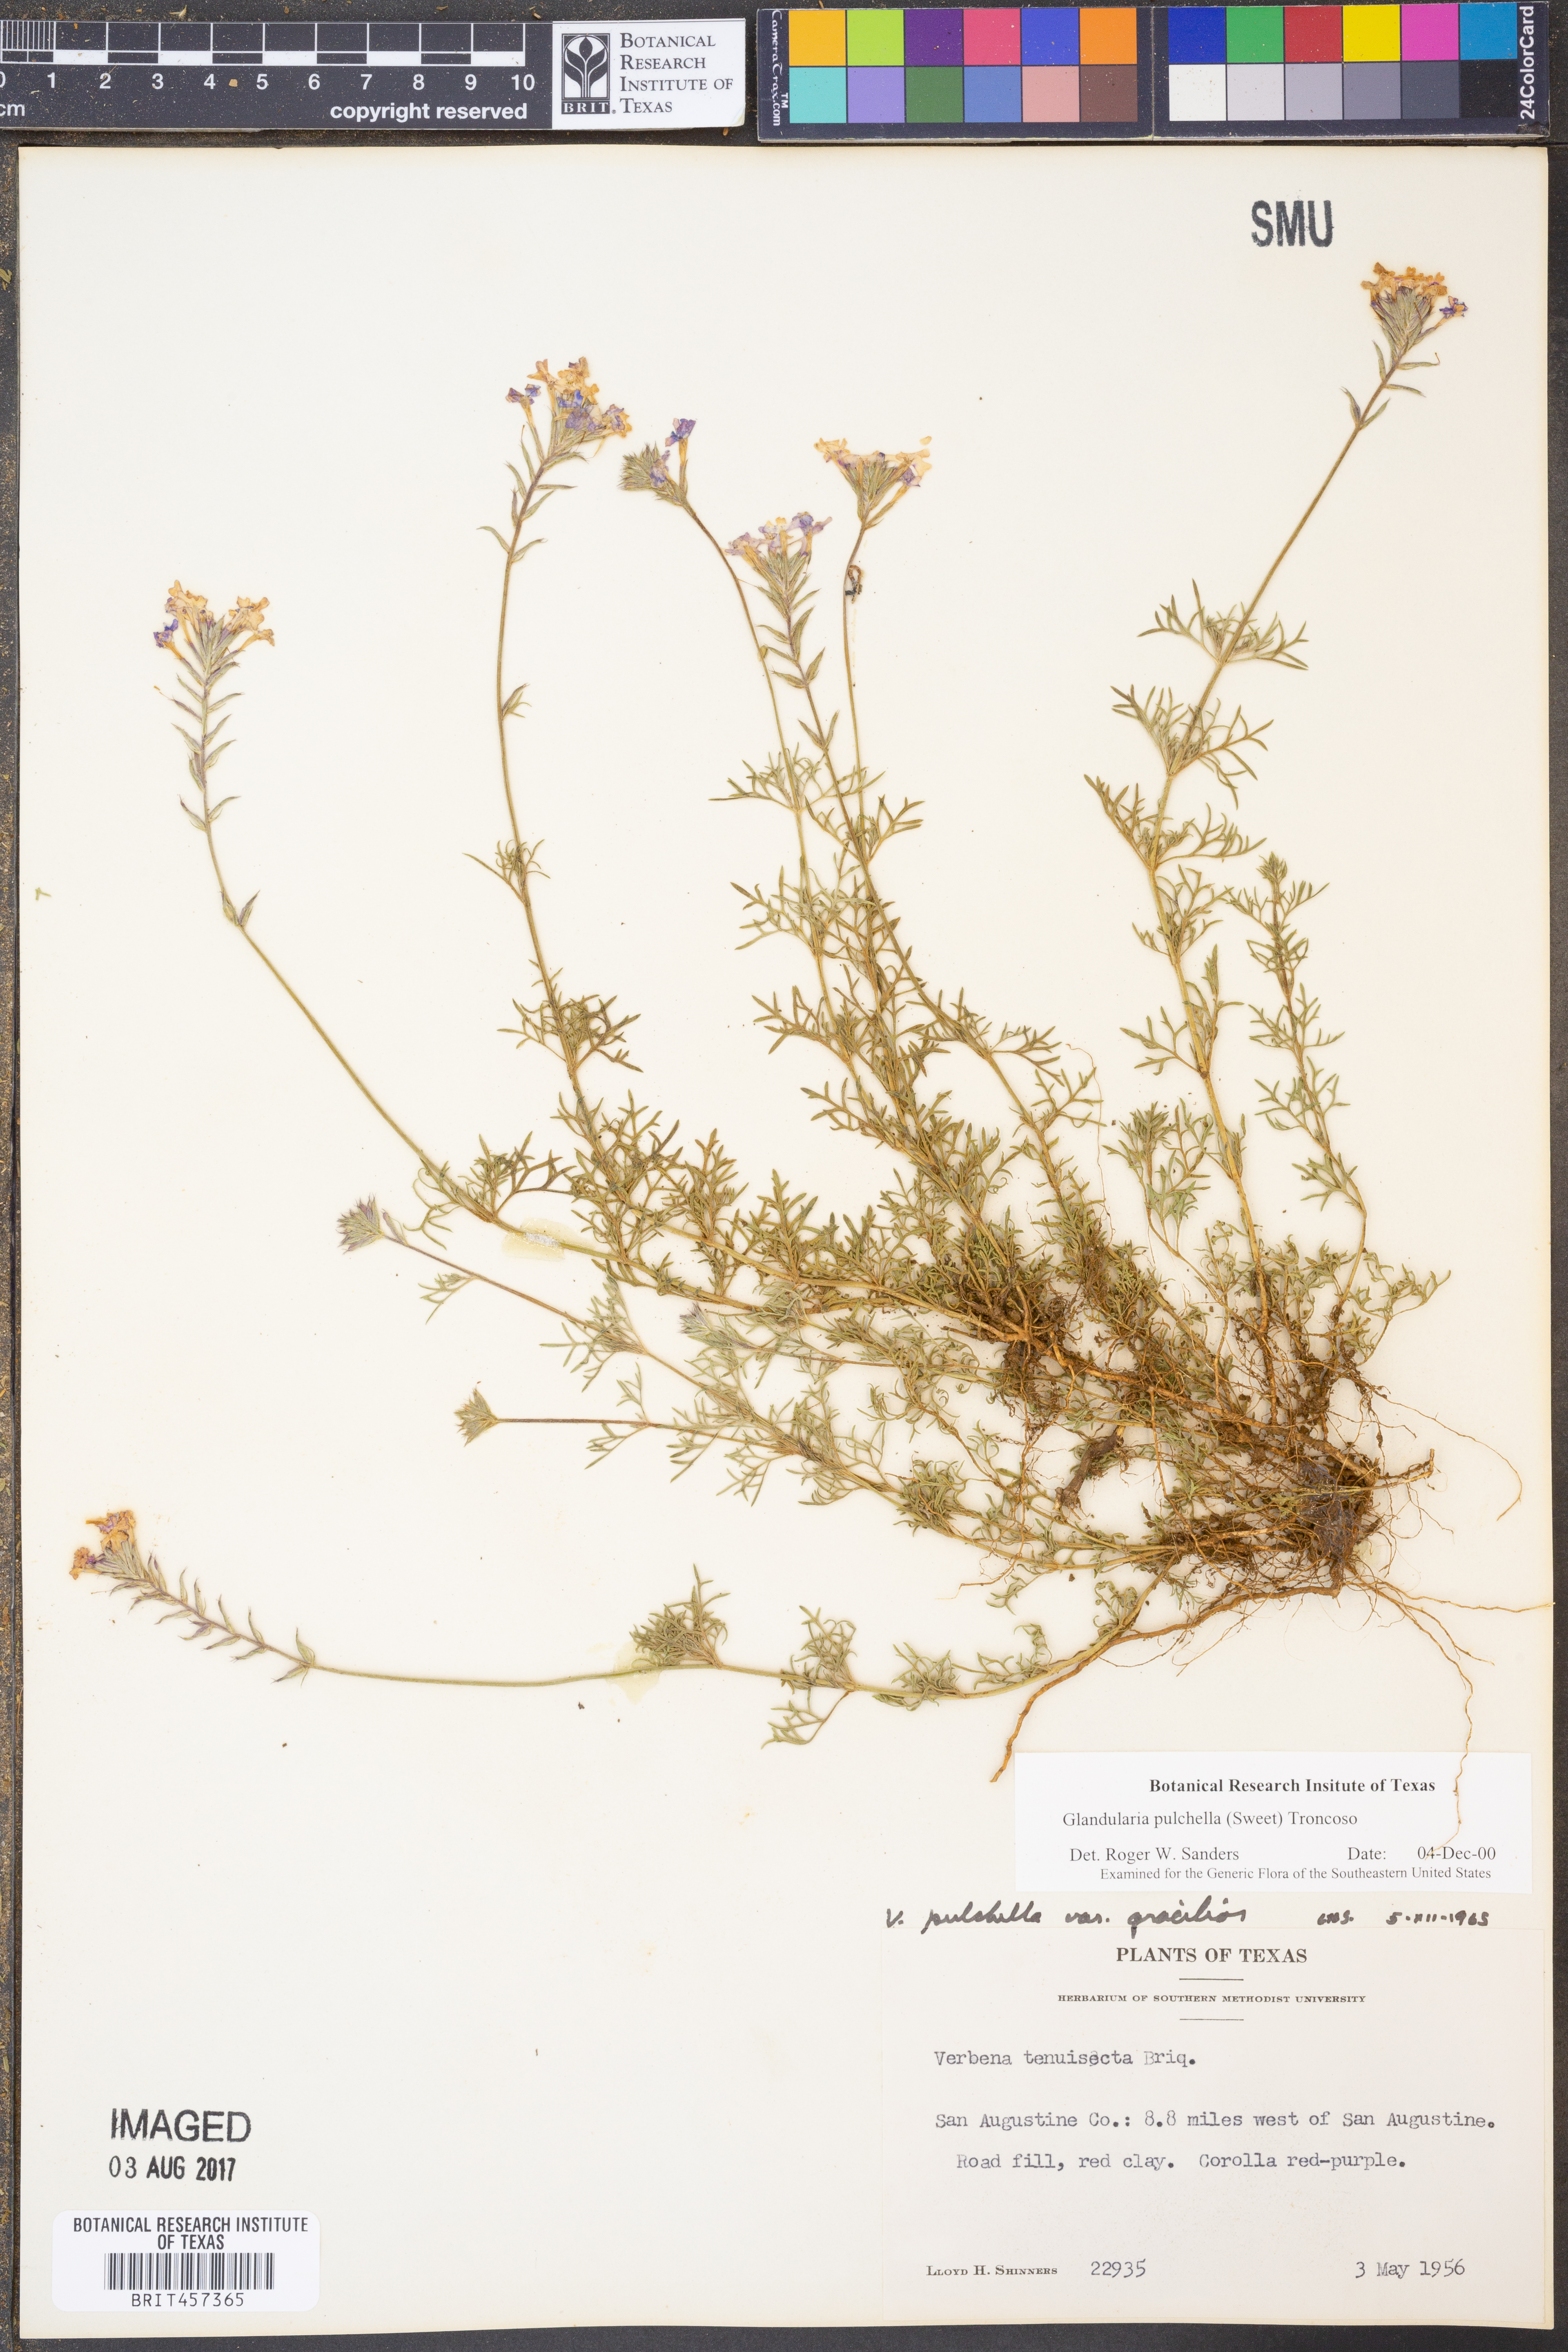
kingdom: Plantae
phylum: Tracheophyta
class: Magnoliopsida
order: Lamiales
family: Verbenaceae
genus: Verbena
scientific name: Verbena tenera
